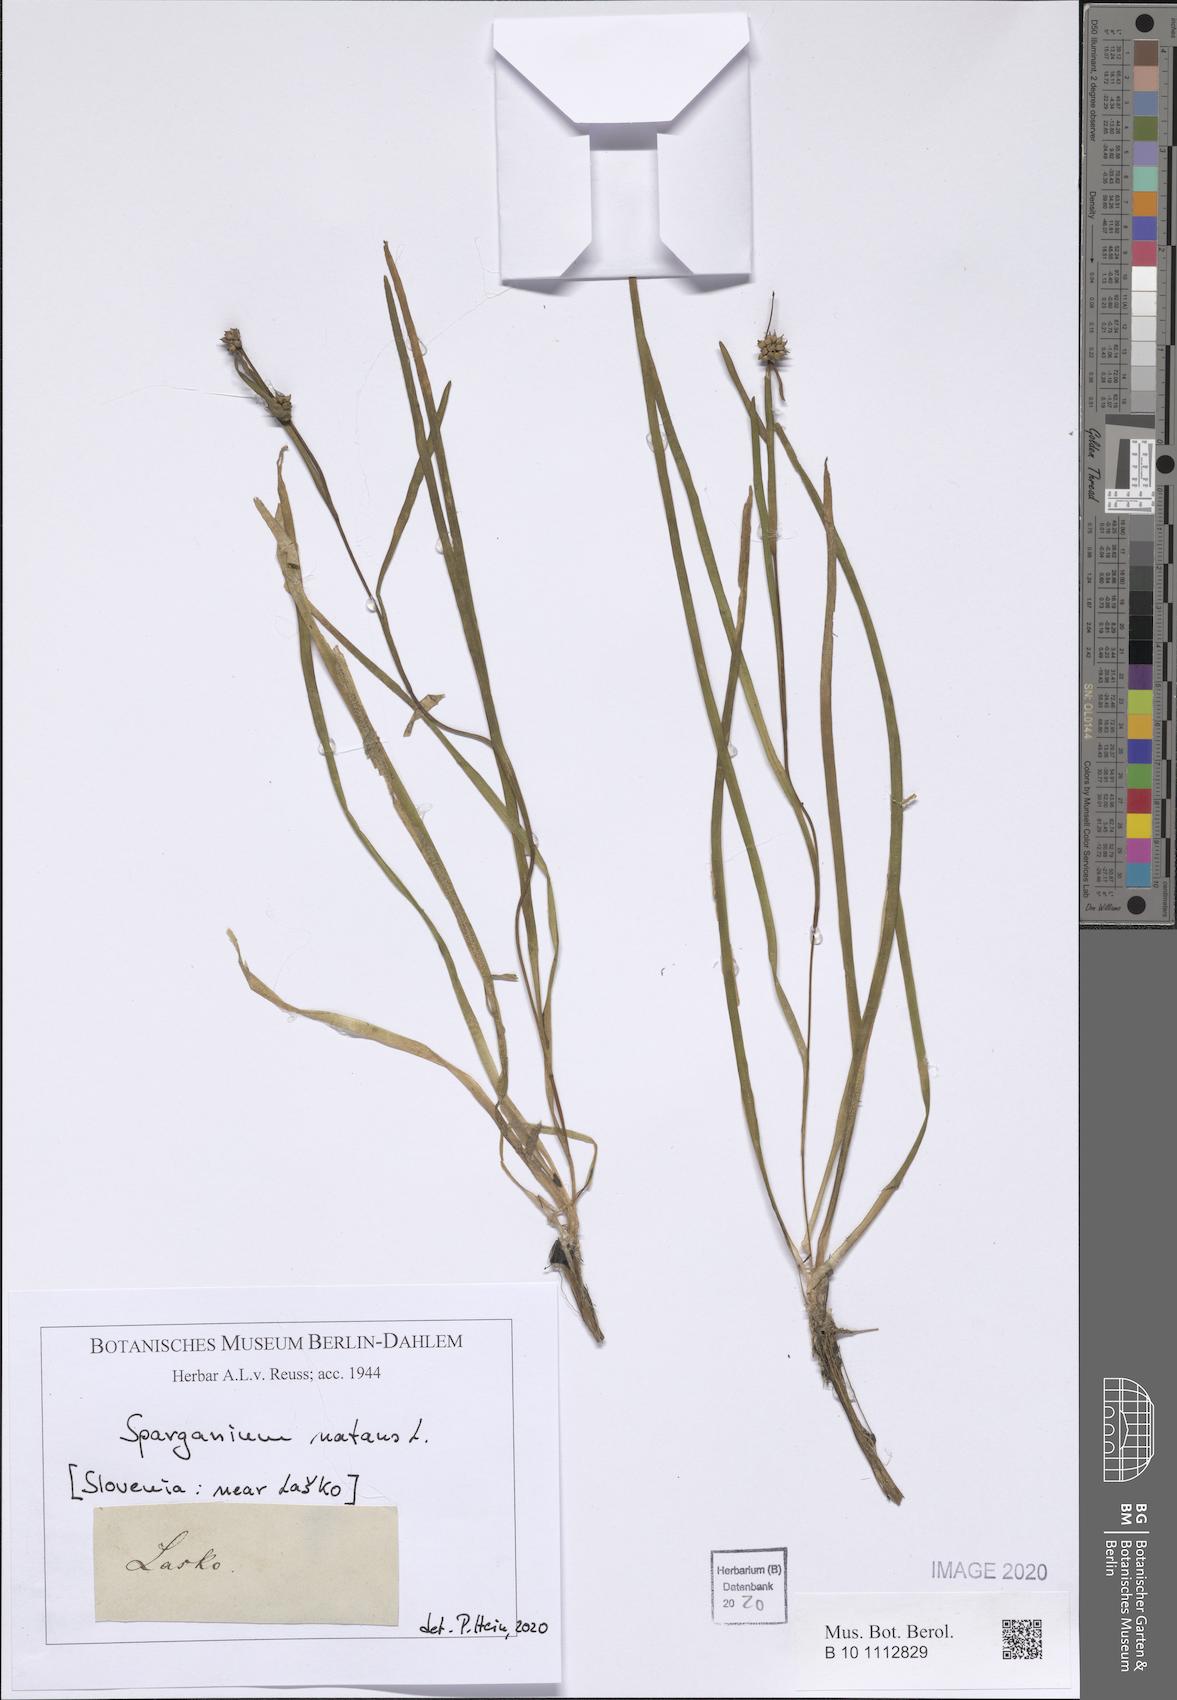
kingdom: Plantae
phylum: Tracheophyta
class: Liliopsida
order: Poales
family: Typhaceae
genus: Sparganium
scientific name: Sparganium natans
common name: Least bur-reed
